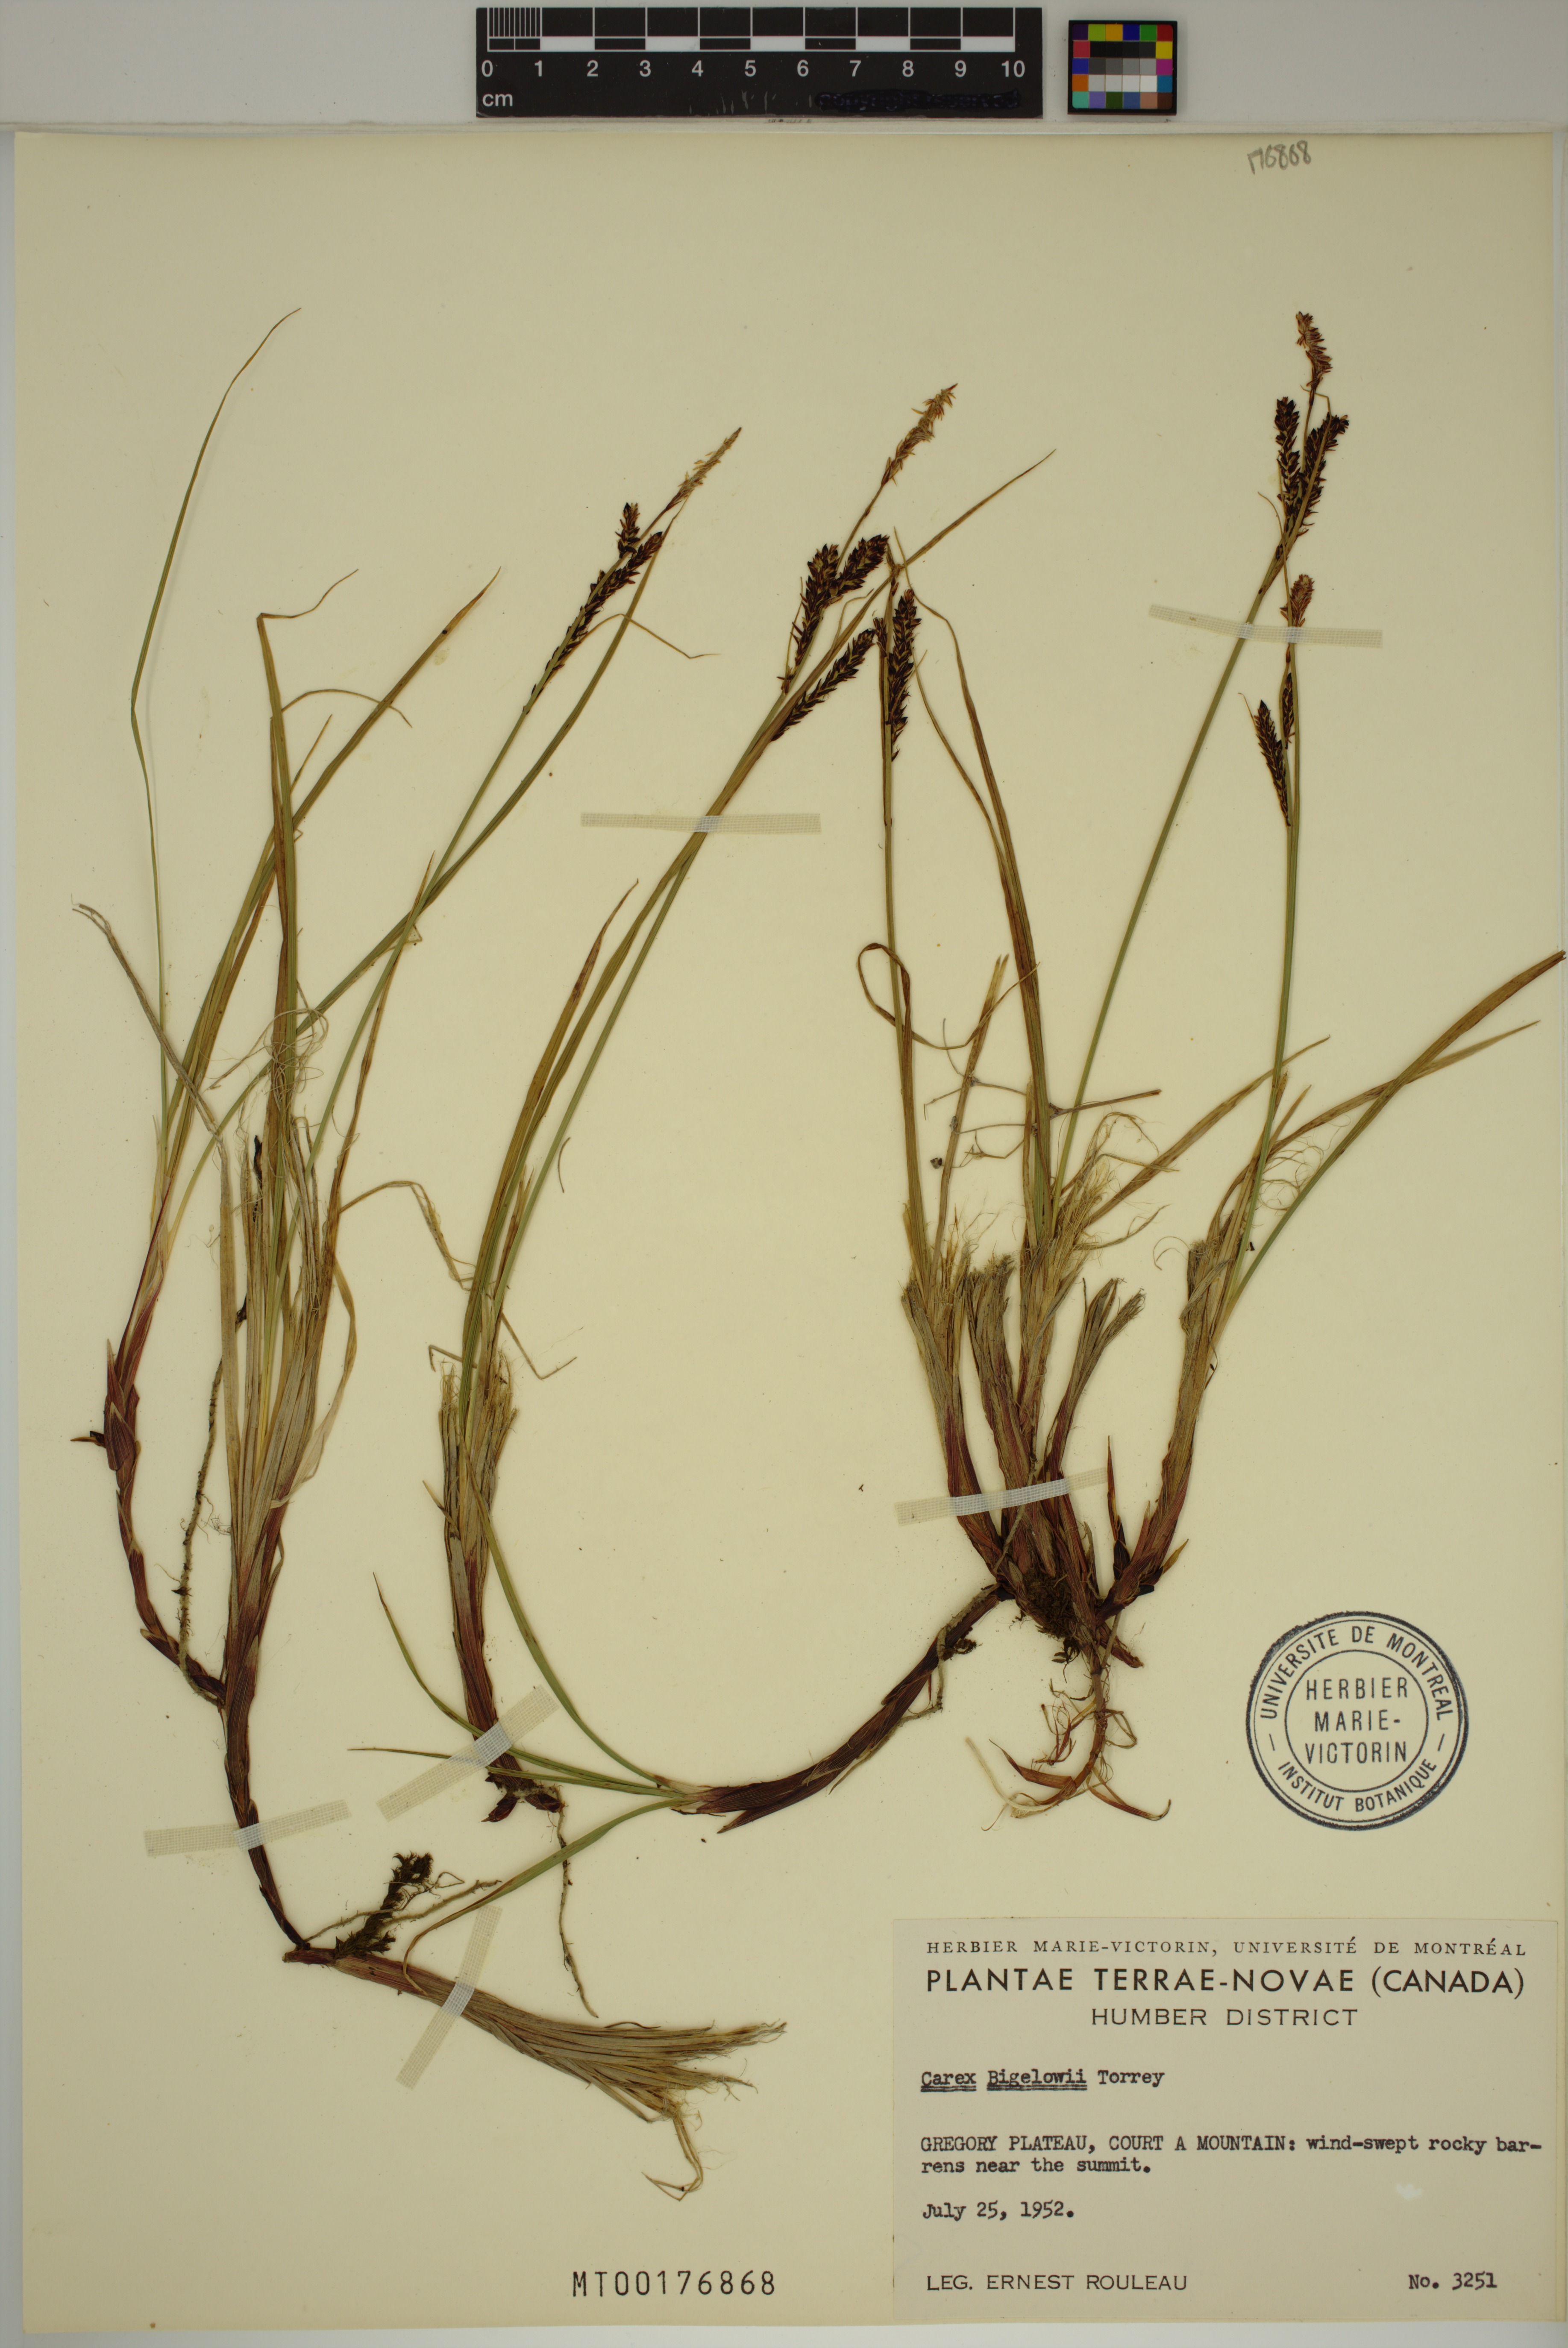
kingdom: Plantae
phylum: Tracheophyta
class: Liliopsida
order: Poales
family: Cyperaceae
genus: Carex
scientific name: Carex bigelowii
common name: Stiff sedge
